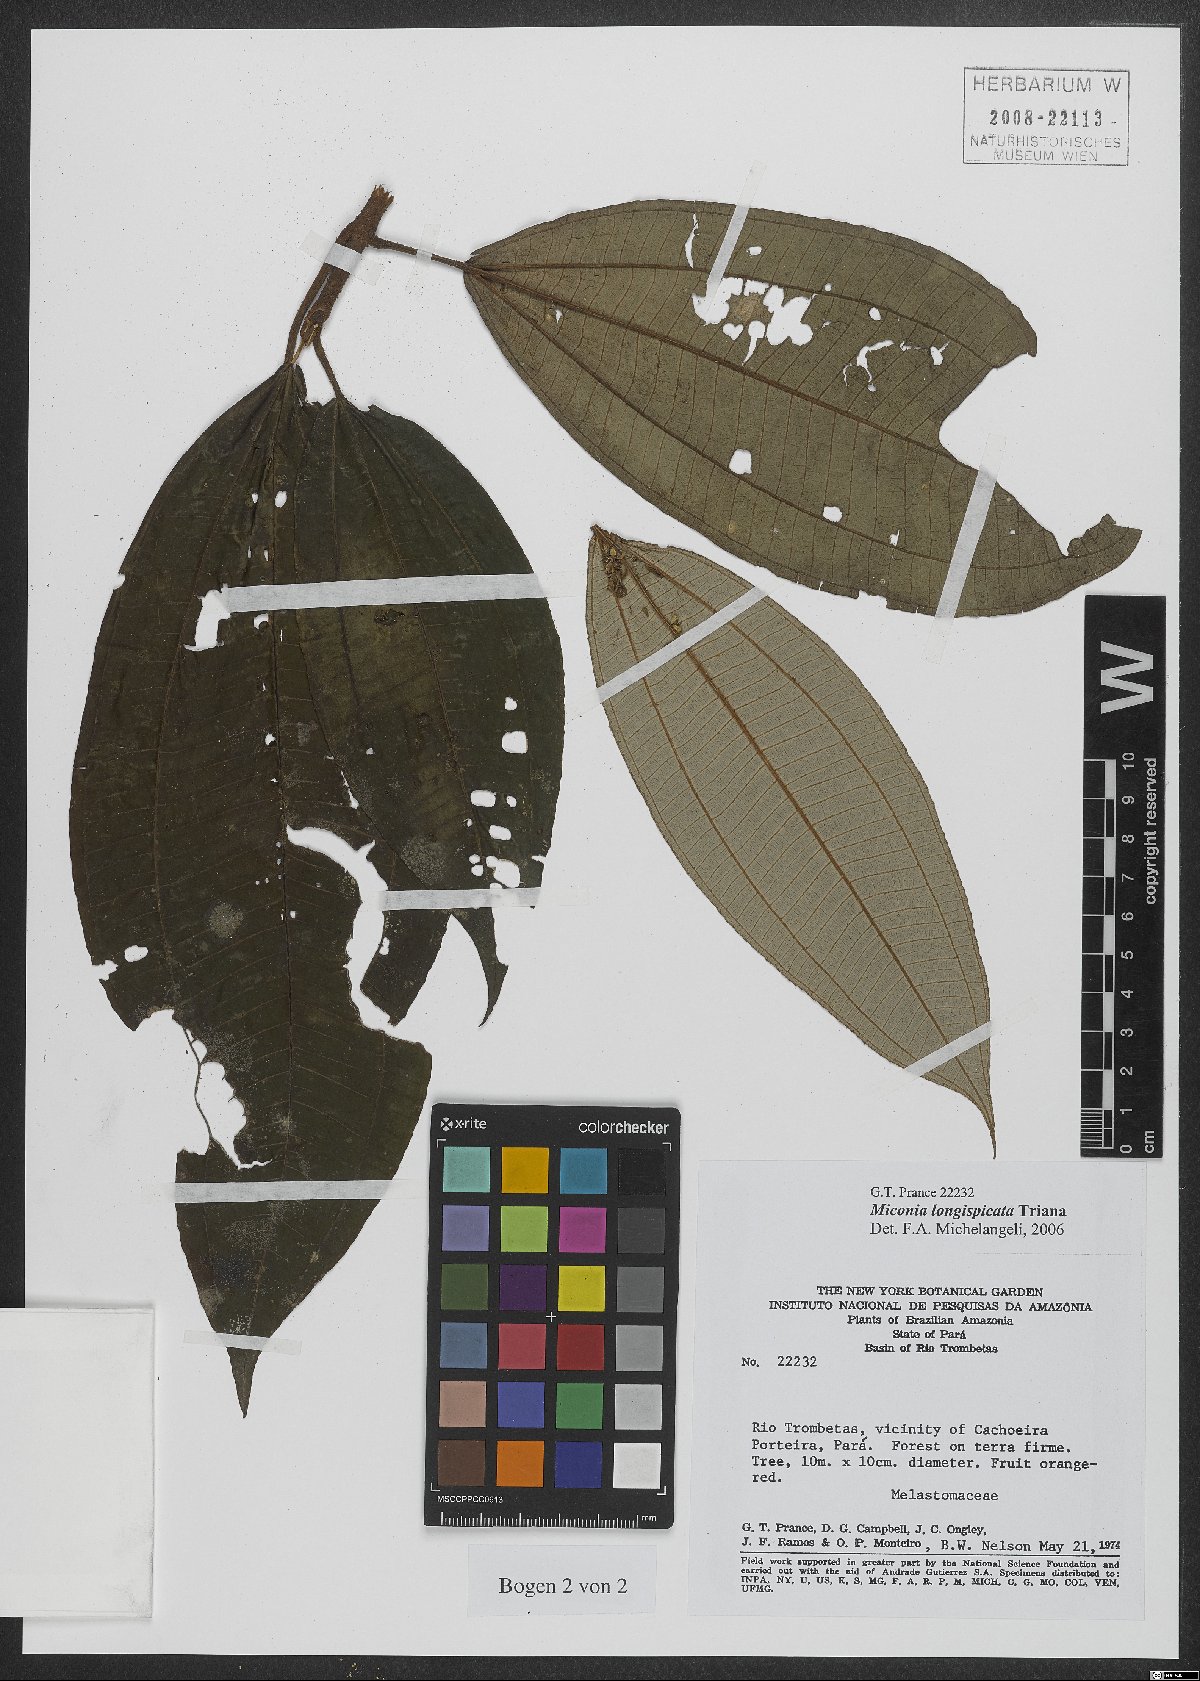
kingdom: Plantae
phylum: Tracheophyta
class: Magnoliopsida
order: Myrtales
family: Melastomataceae
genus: Miconia
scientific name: Miconia longispicata
